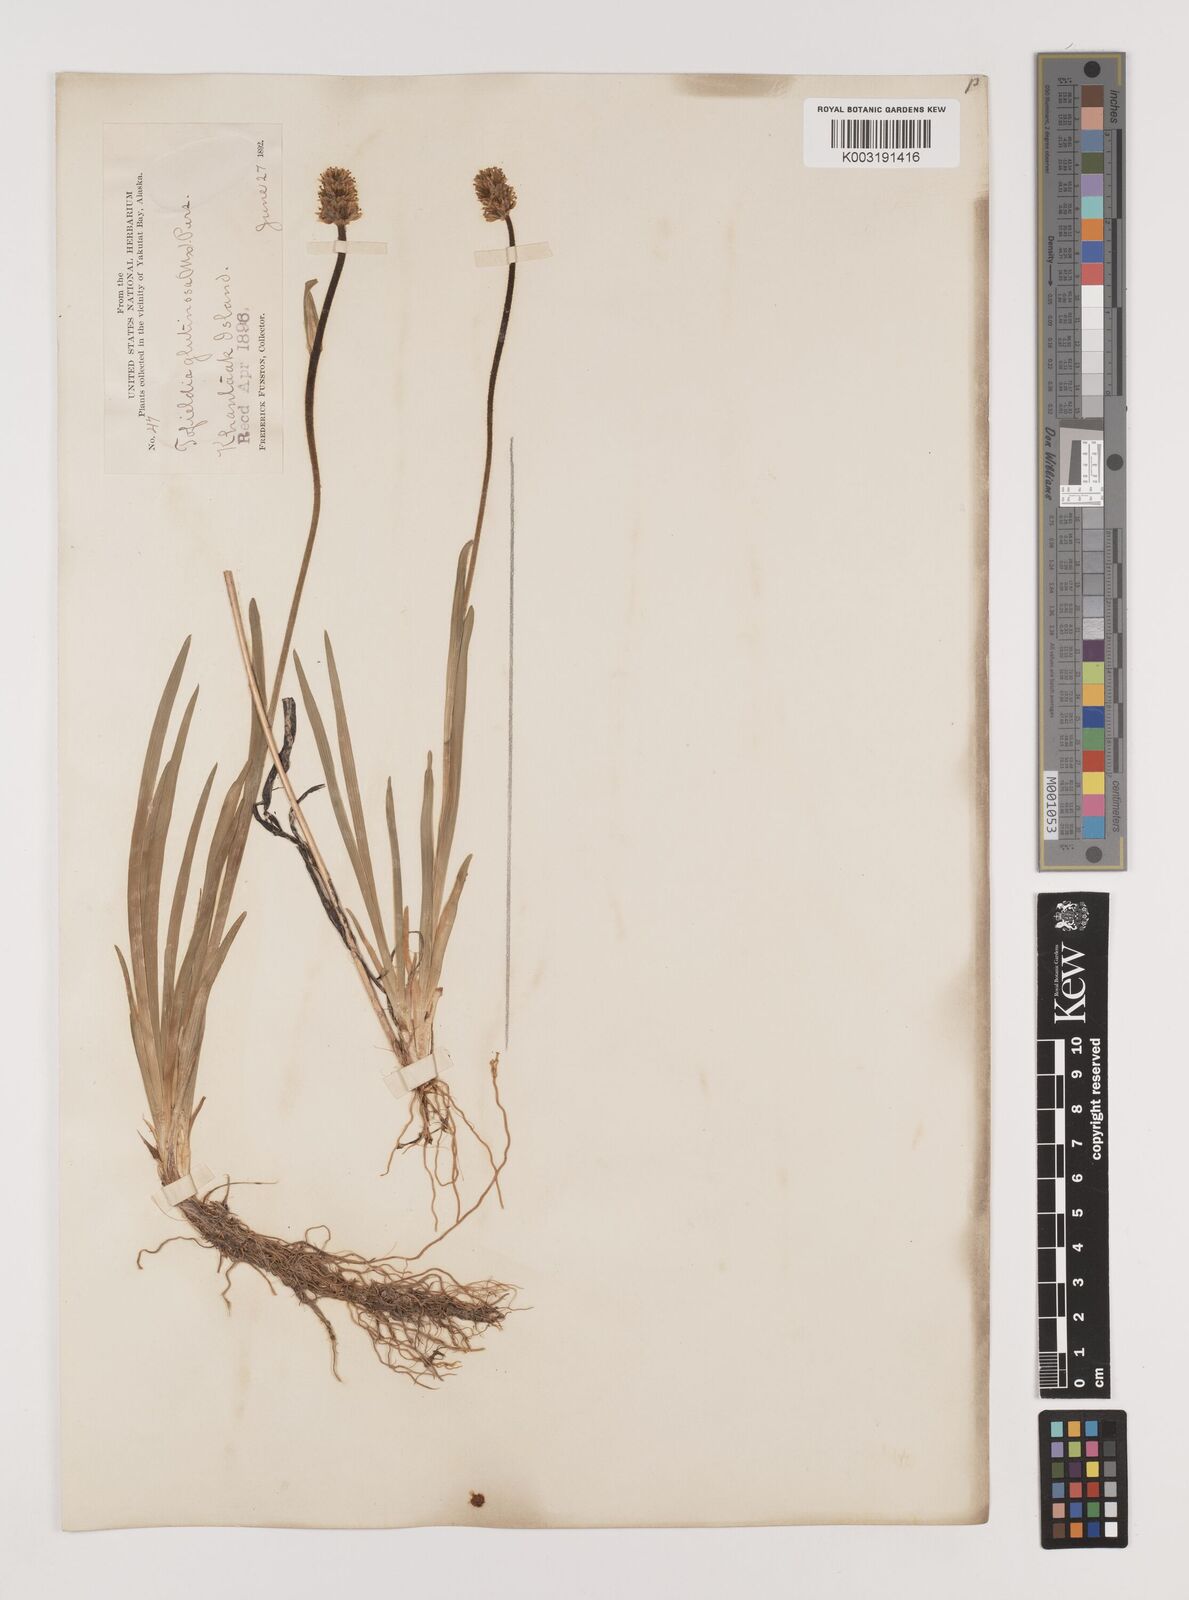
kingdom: Plantae
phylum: Tracheophyta
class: Liliopsida
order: Alismatales
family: Tofieldiaceae
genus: Triantha
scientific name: Triantha glutinosa
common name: Glutinous tofieldia
